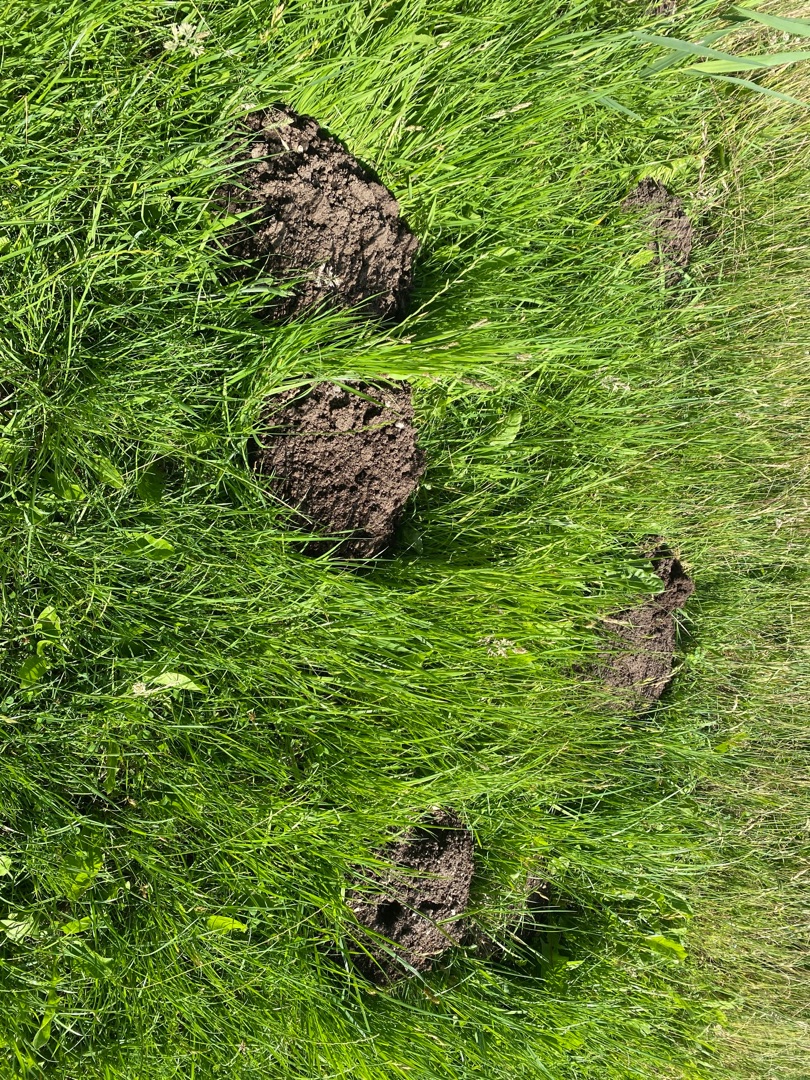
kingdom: Animalia
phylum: Chordata
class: Mammalia
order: Soricomorpha
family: Talpidae
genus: Talpa
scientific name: Talpa europaea
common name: Muldvarp
